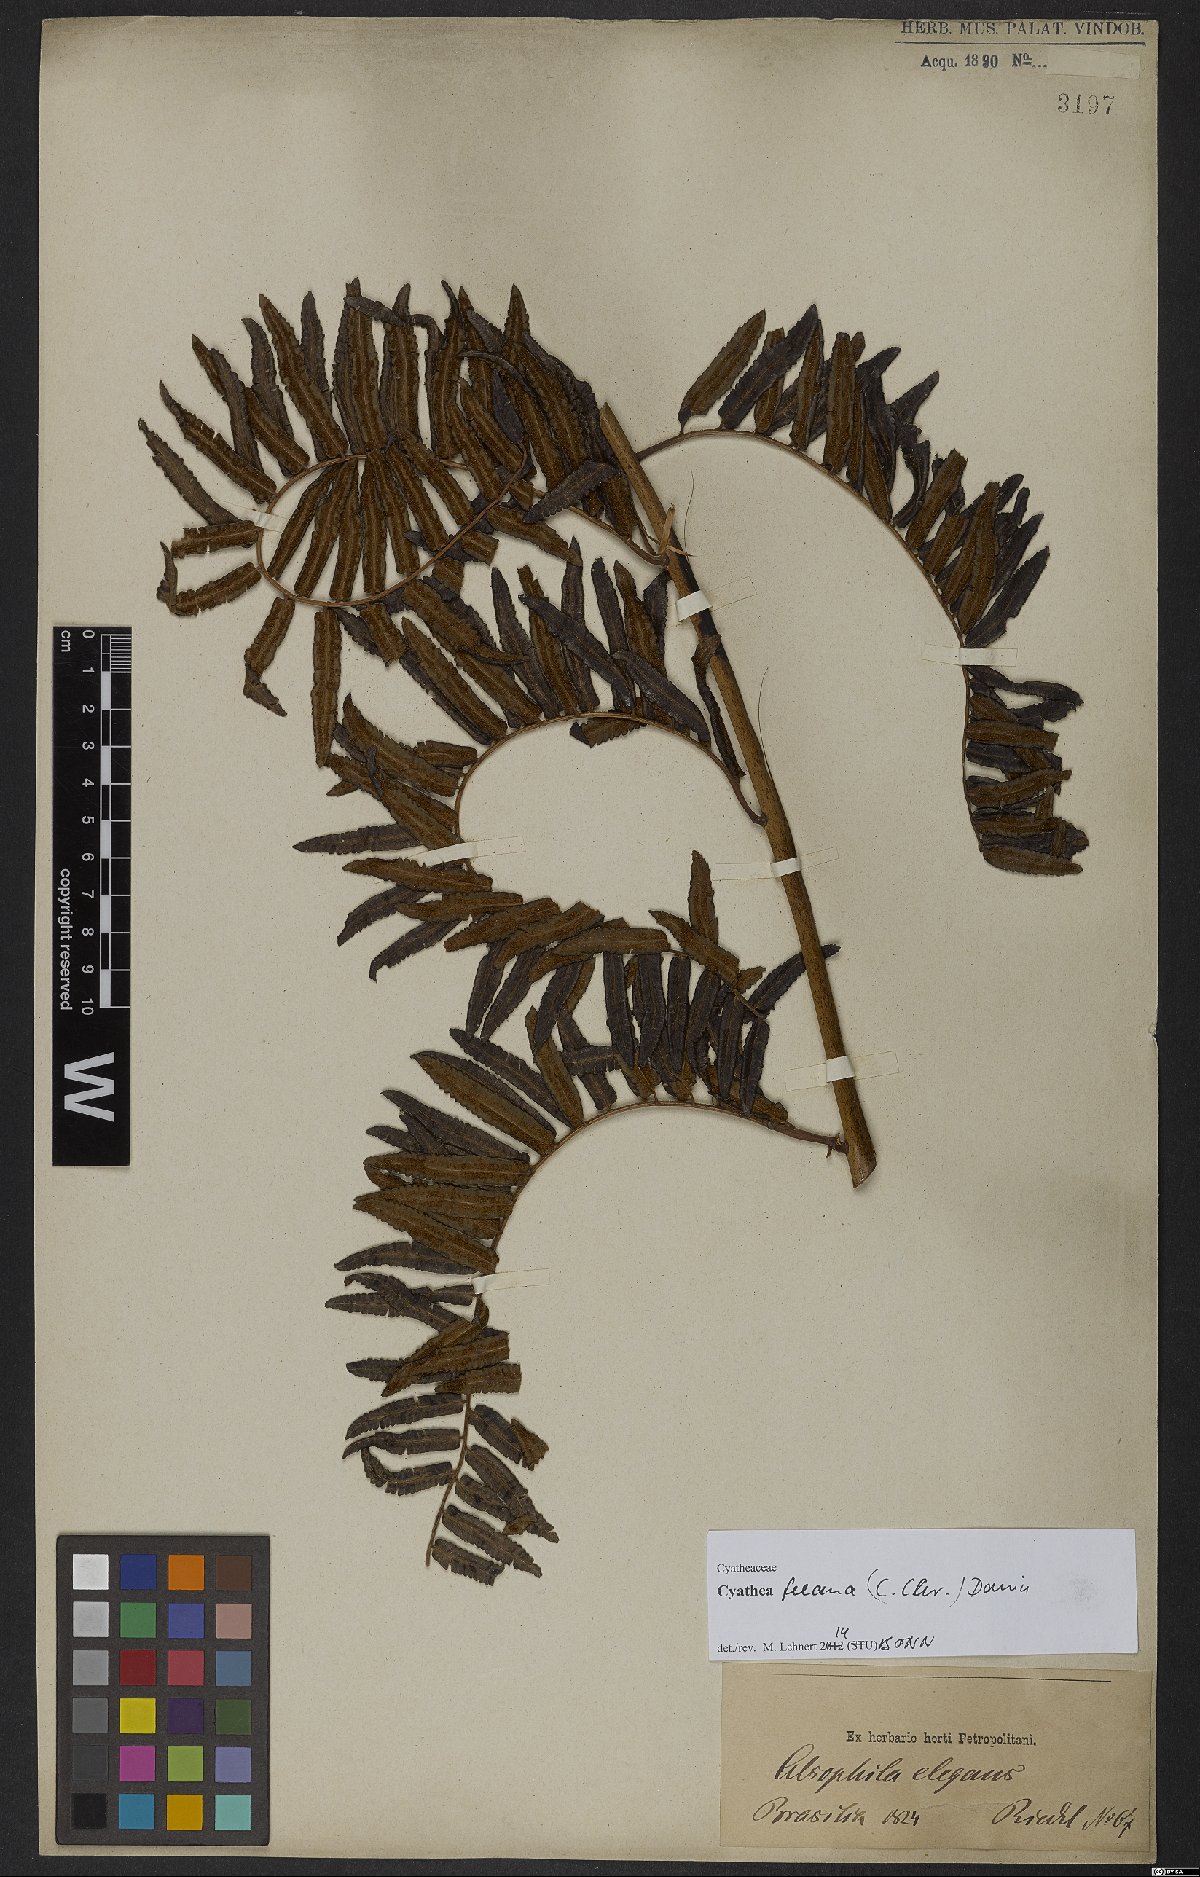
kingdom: Plantae
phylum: Tracheophyta
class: Polypodiopsida
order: Cyatheales
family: Cyatheaceae
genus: Cyathea
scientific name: Cyathea feeana
